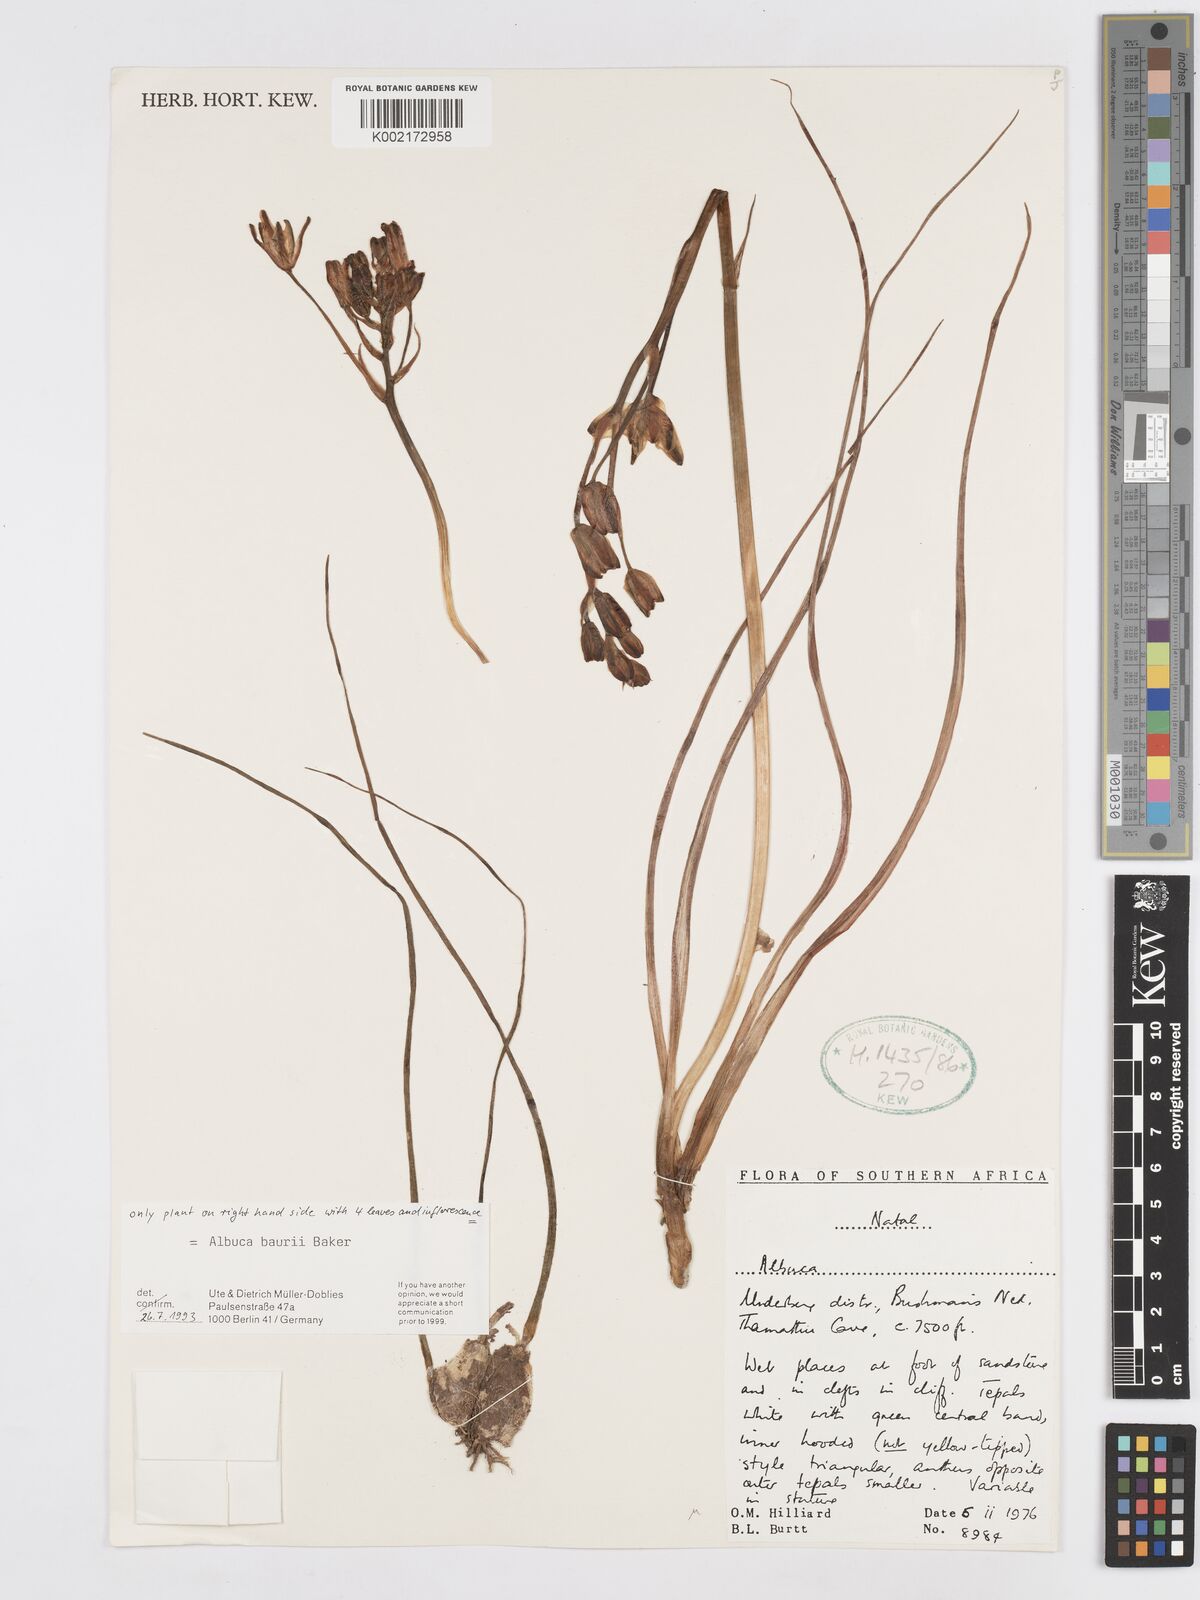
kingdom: Plantae
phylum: Tracheophyta
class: Liliopsida
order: Asparagales
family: Asparagaceae
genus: Albuca
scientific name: Albuca setosa
